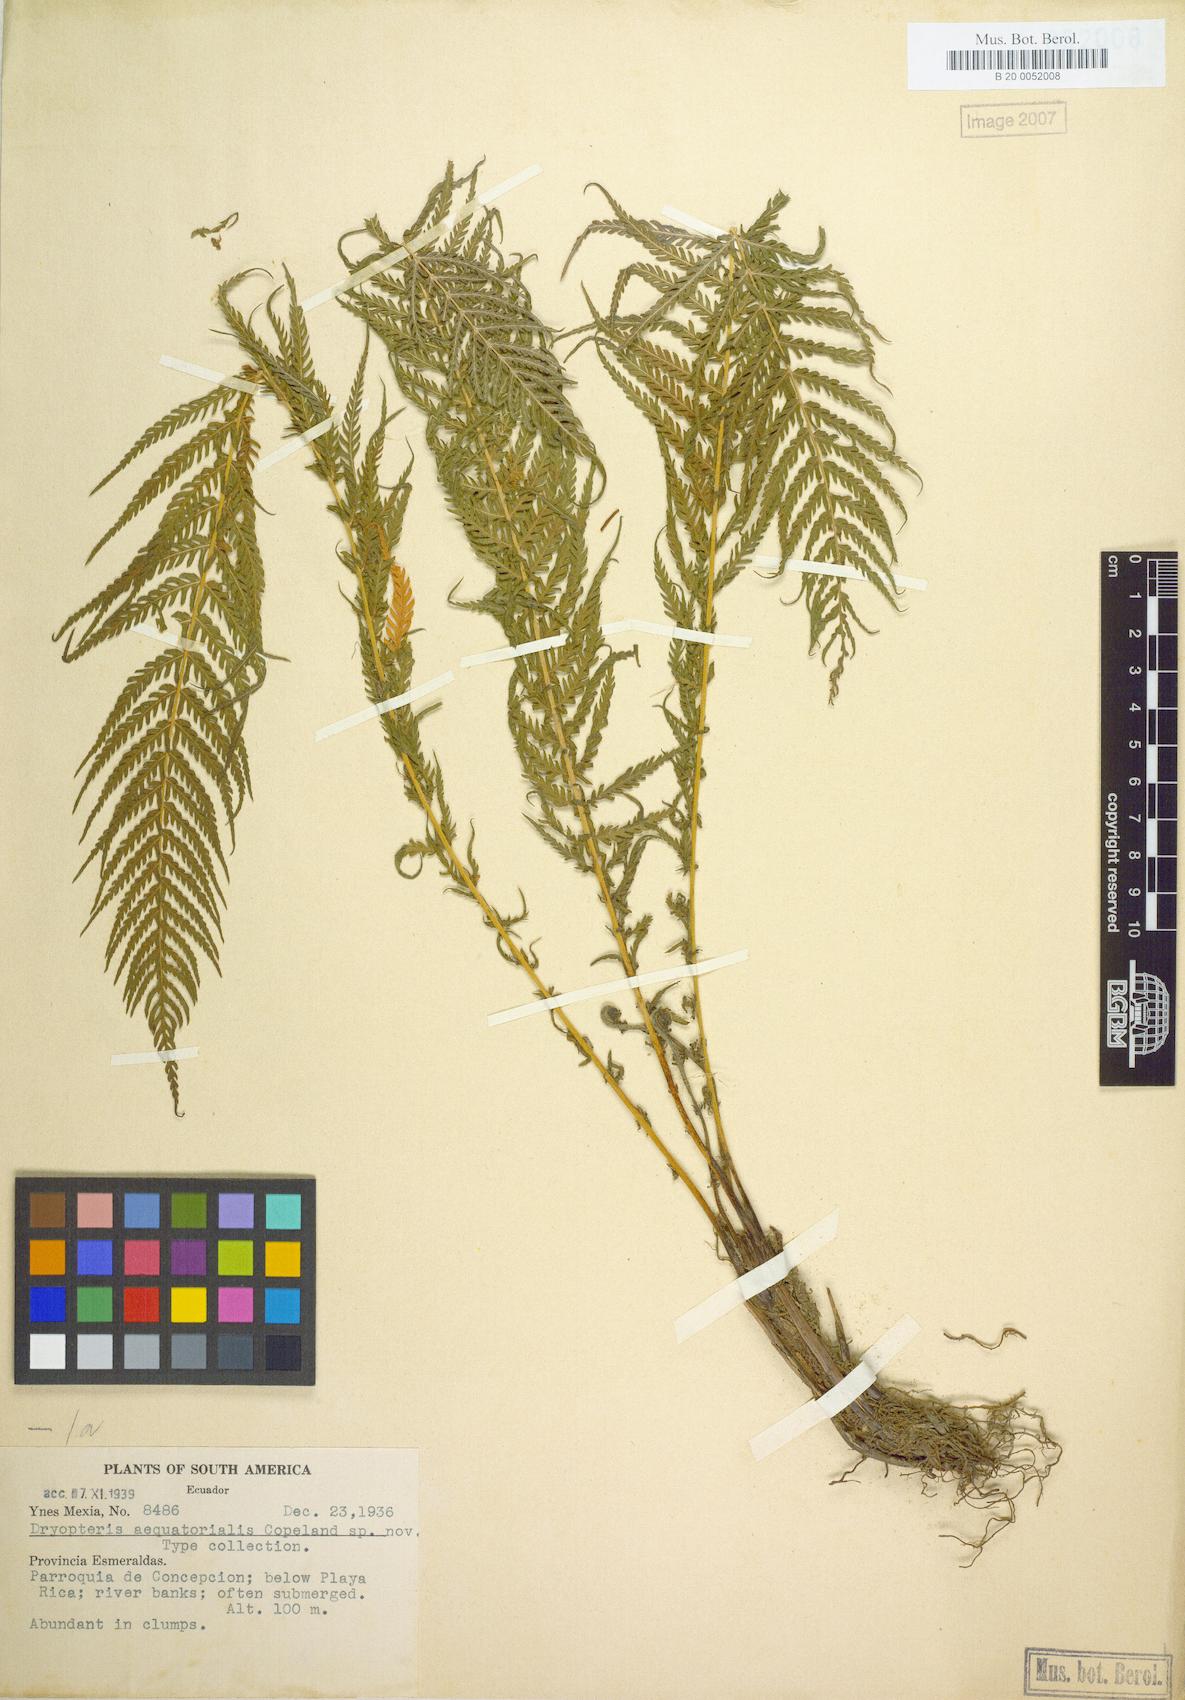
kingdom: Plantae
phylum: Tracheophyta
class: Polypodiopsida
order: Polypodiales
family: Thelypteridaceae
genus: Amauropelta
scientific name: Amauropelta resinifera
